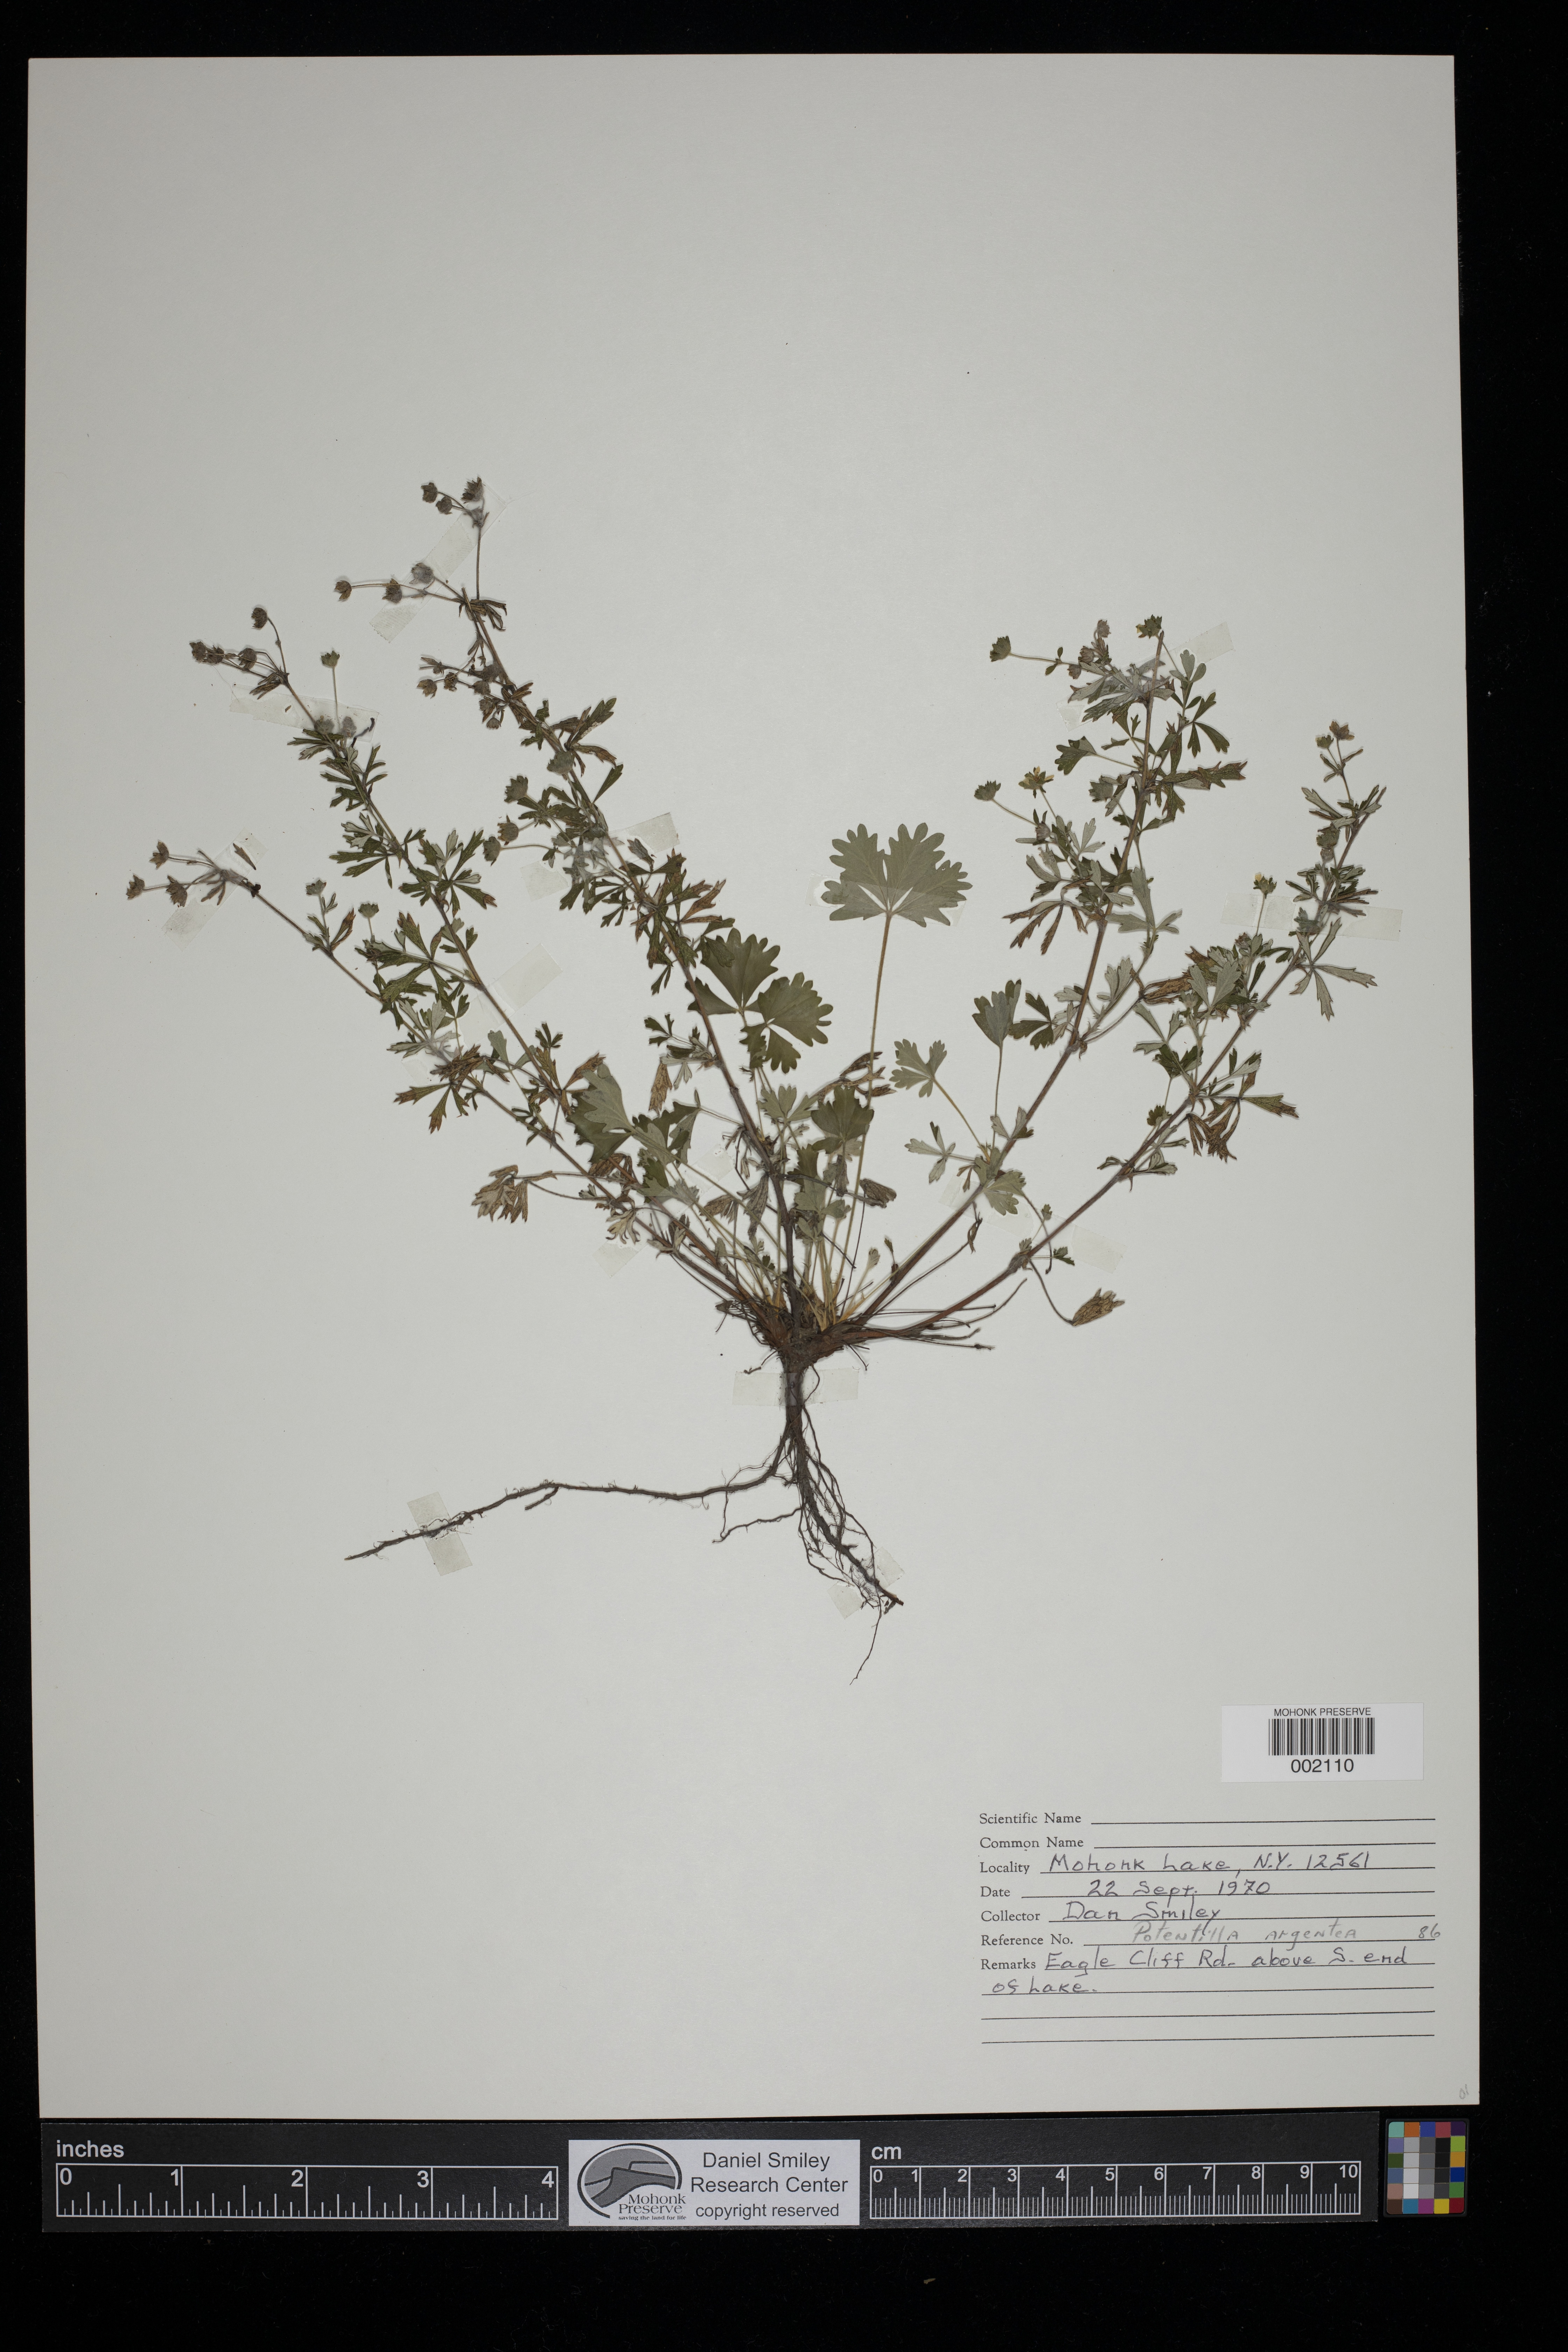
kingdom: Plantae
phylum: Tracheophyta
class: Magnoliopsida
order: Rosales
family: Rosaceae
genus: Potentilla
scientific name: Potentilla argentea
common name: Hoary cinquefoil
